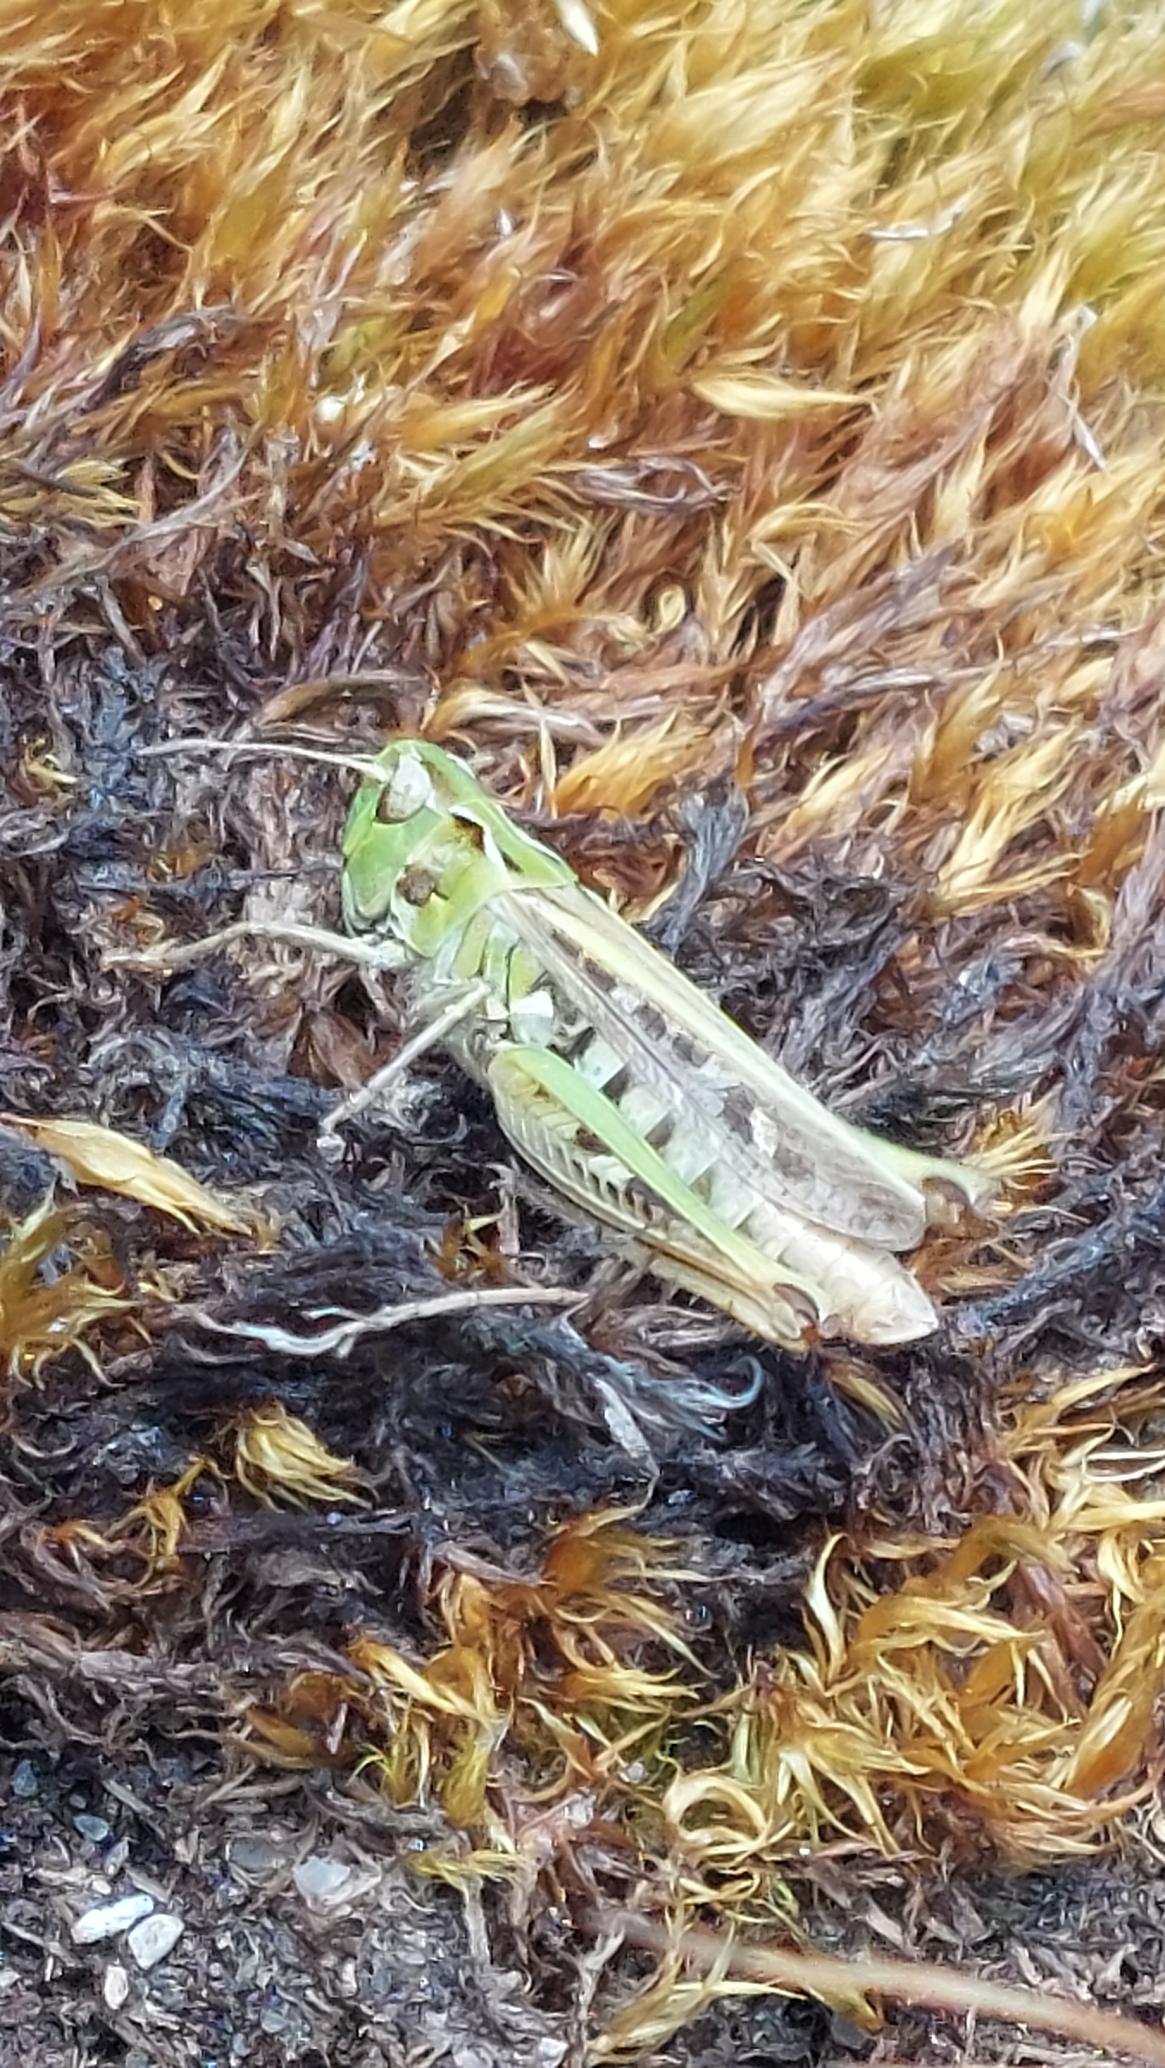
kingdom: Animalia
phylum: Arthropoda
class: Insecta
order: Orthoptera
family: Acrididae
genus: Myrmeleotettix
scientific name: Myrmeleotettix maculatus
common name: Køllegræshoppe
